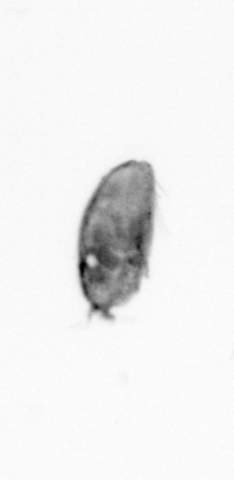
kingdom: Animalia
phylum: Arthropoda
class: Maxillopoda
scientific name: Maxillopoda
